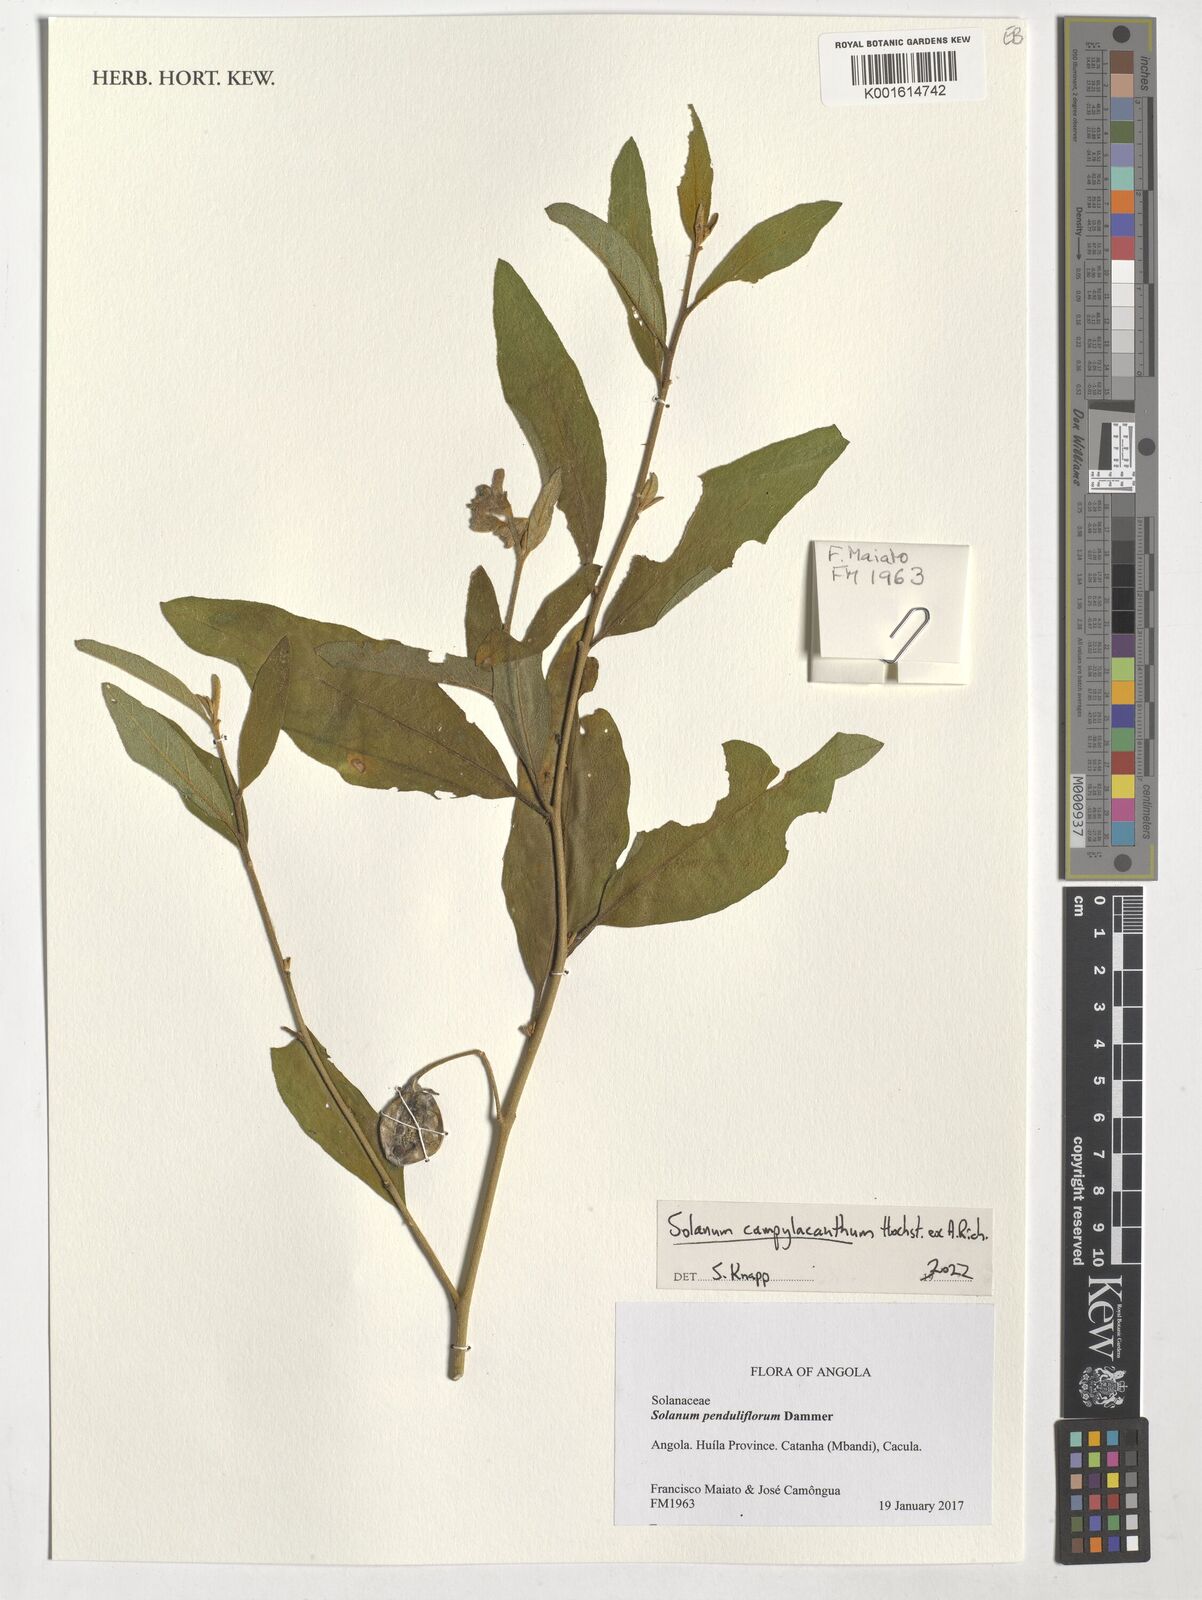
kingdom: Plantae
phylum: Tracheophyta
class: Magnoliopsida
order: Solanales
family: Solanaceae
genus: Solanum
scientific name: Solanum campylacanthum
